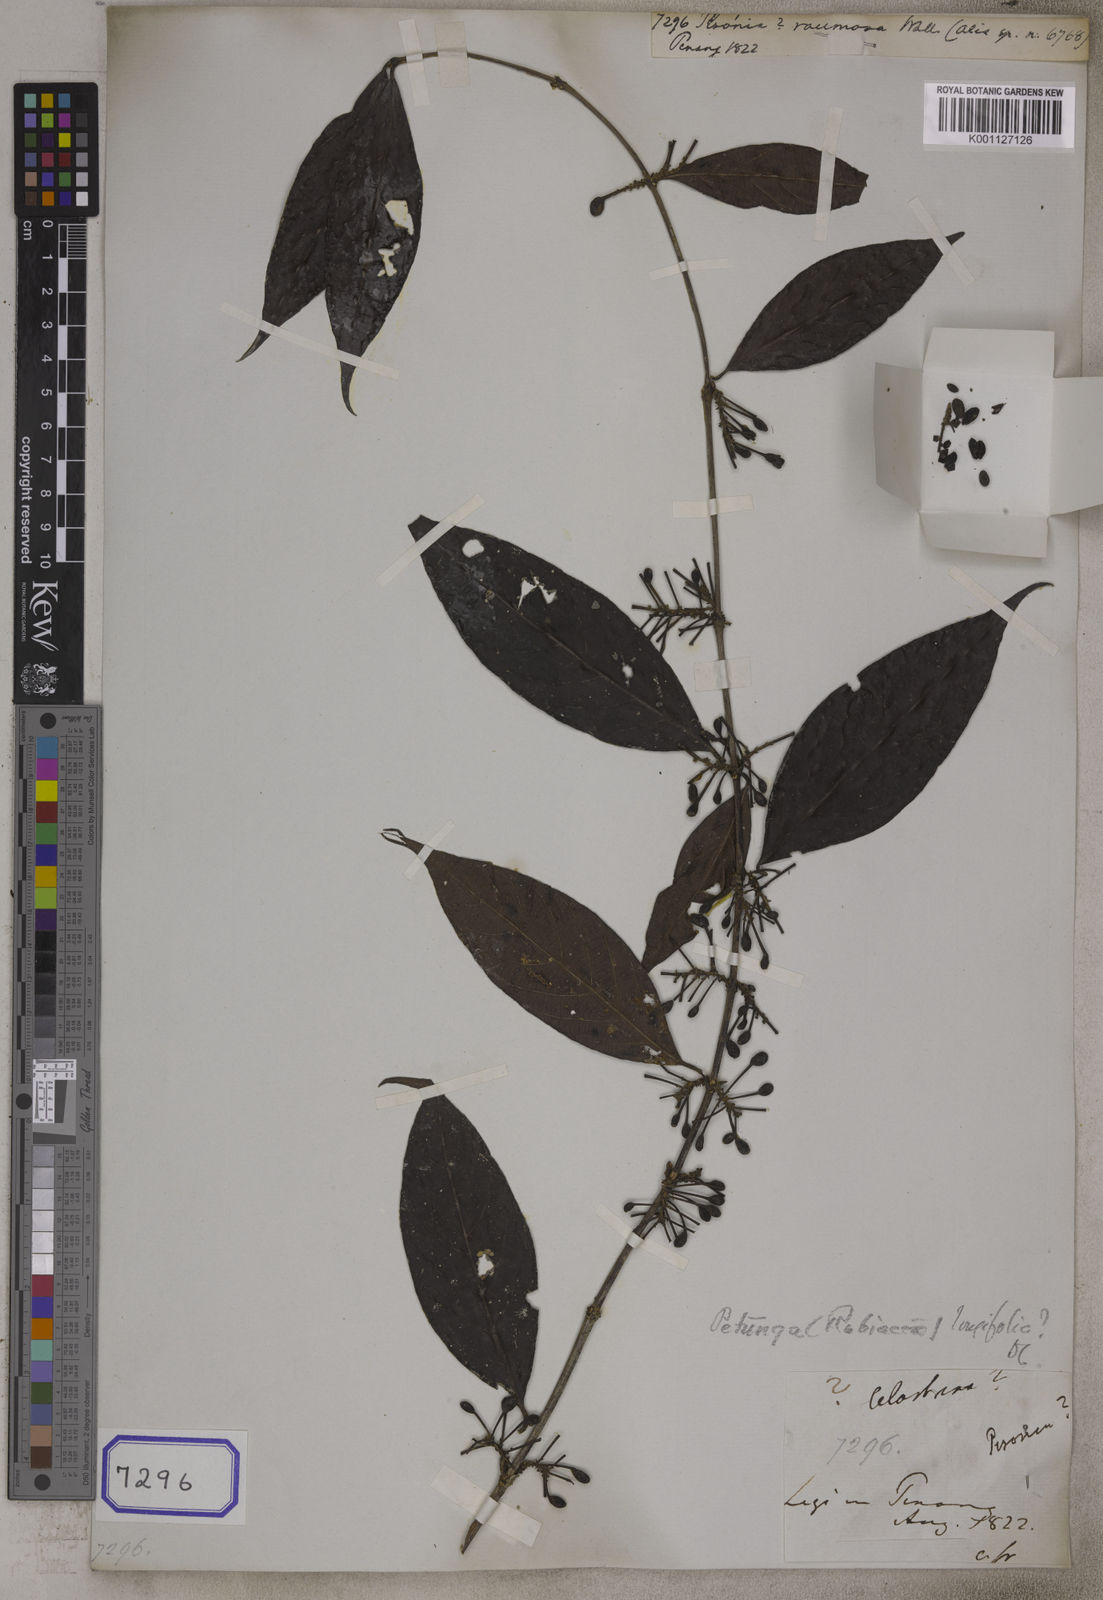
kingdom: Plantae
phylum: Tracheophyta
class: Magnoliopsida
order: Gentianales
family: Rubiaceae
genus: Hypobathrum
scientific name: Hypobathrum longifolium
